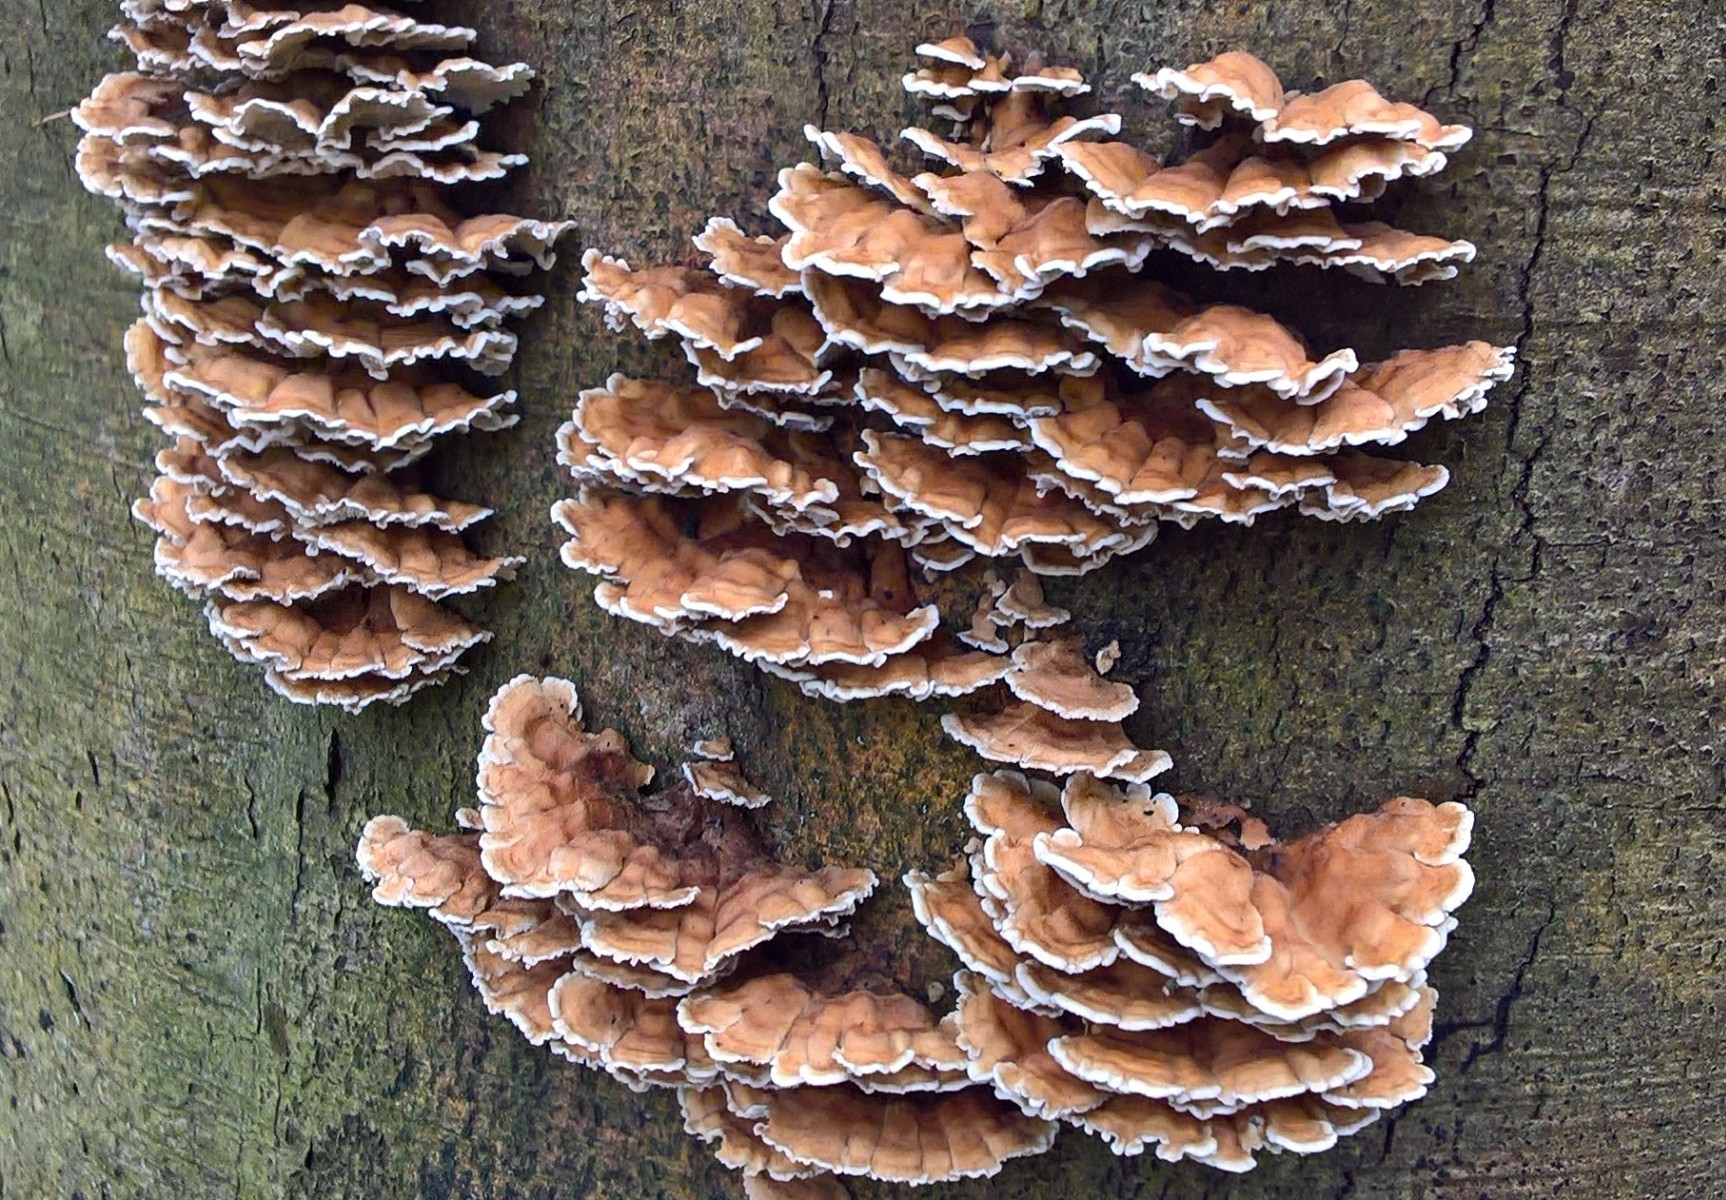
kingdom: Fungi
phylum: Basidiomycota
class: Agaricomycetes
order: Amylocorticiales
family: Amylocorticiaceae
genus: Plicaturopsis
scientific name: Plicaturopsis crispa
